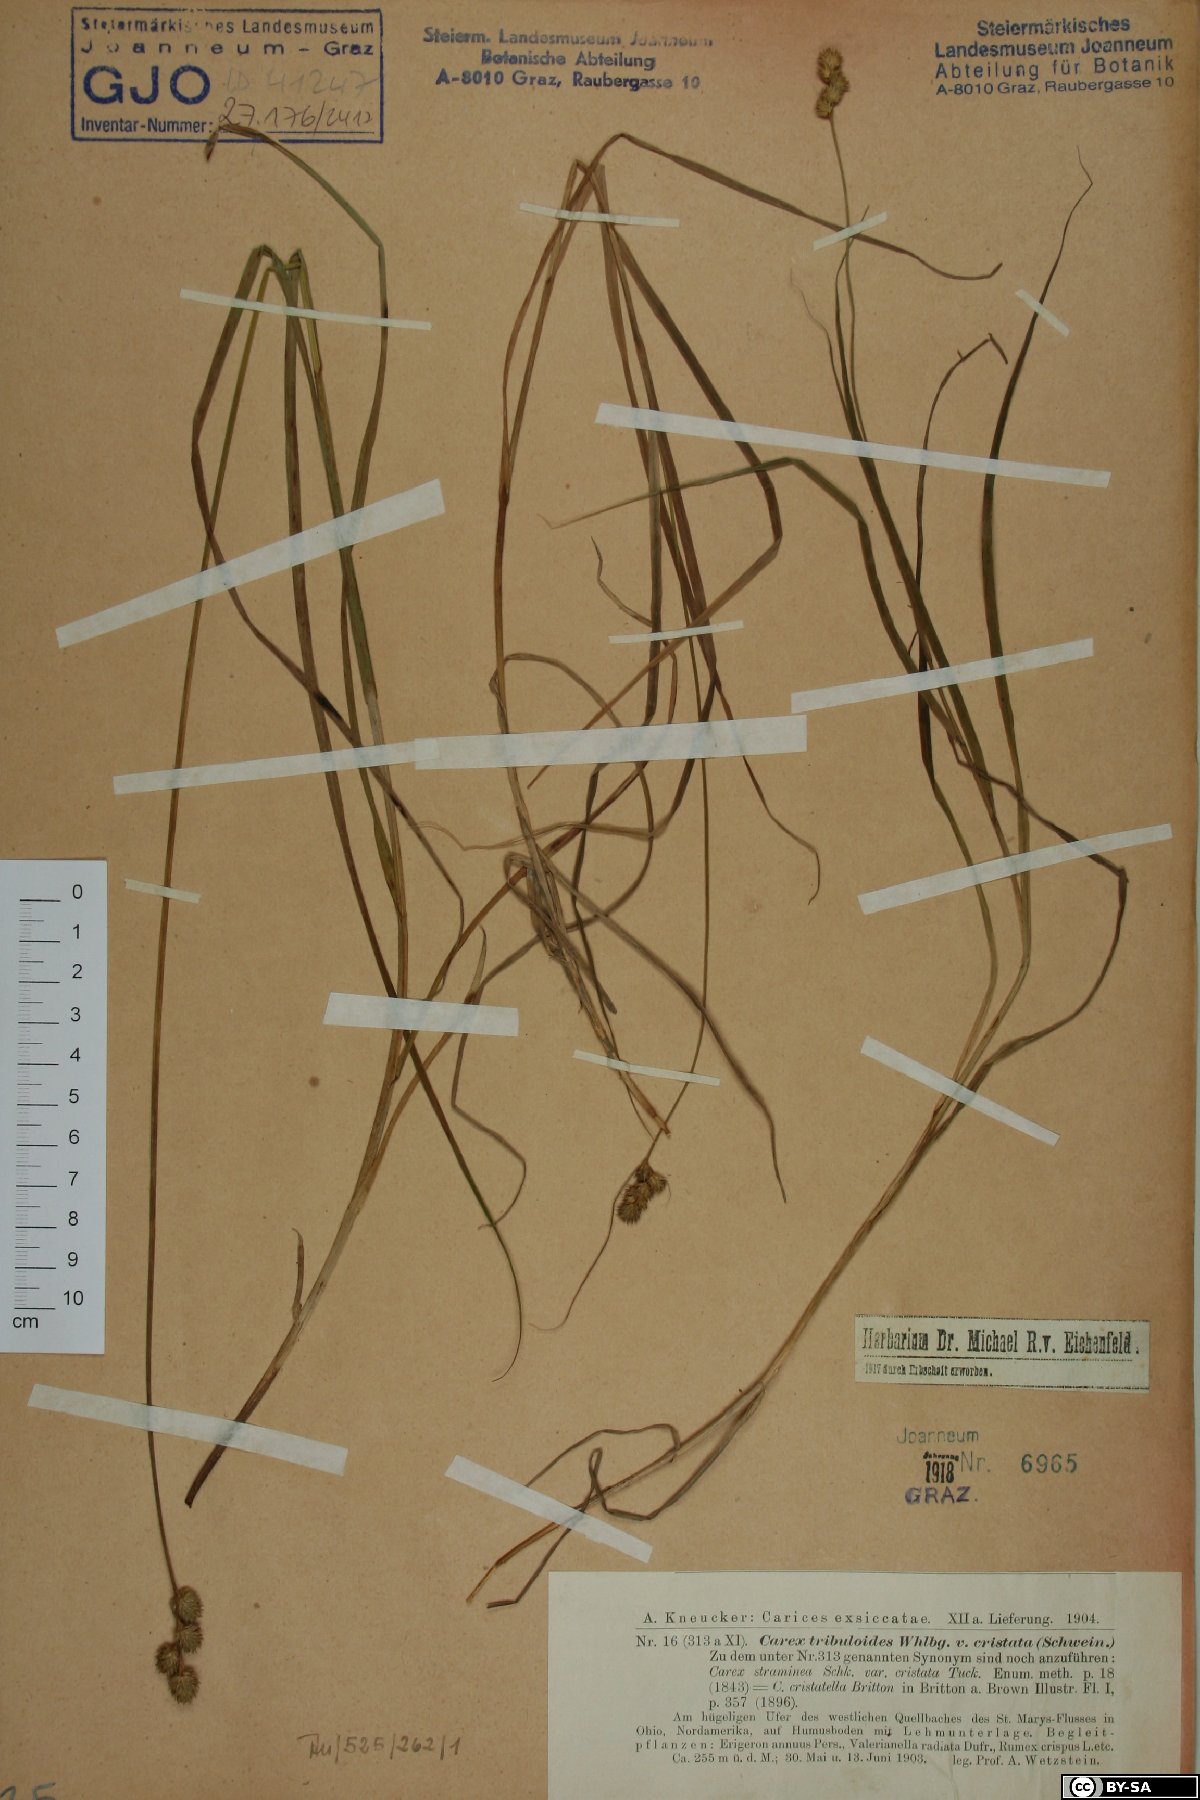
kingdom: Plantae
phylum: Tracheophyta
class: Liliopsida
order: Poales
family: Cyperaceae
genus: Carex
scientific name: Carex cristatella
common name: Crested oval sedge
